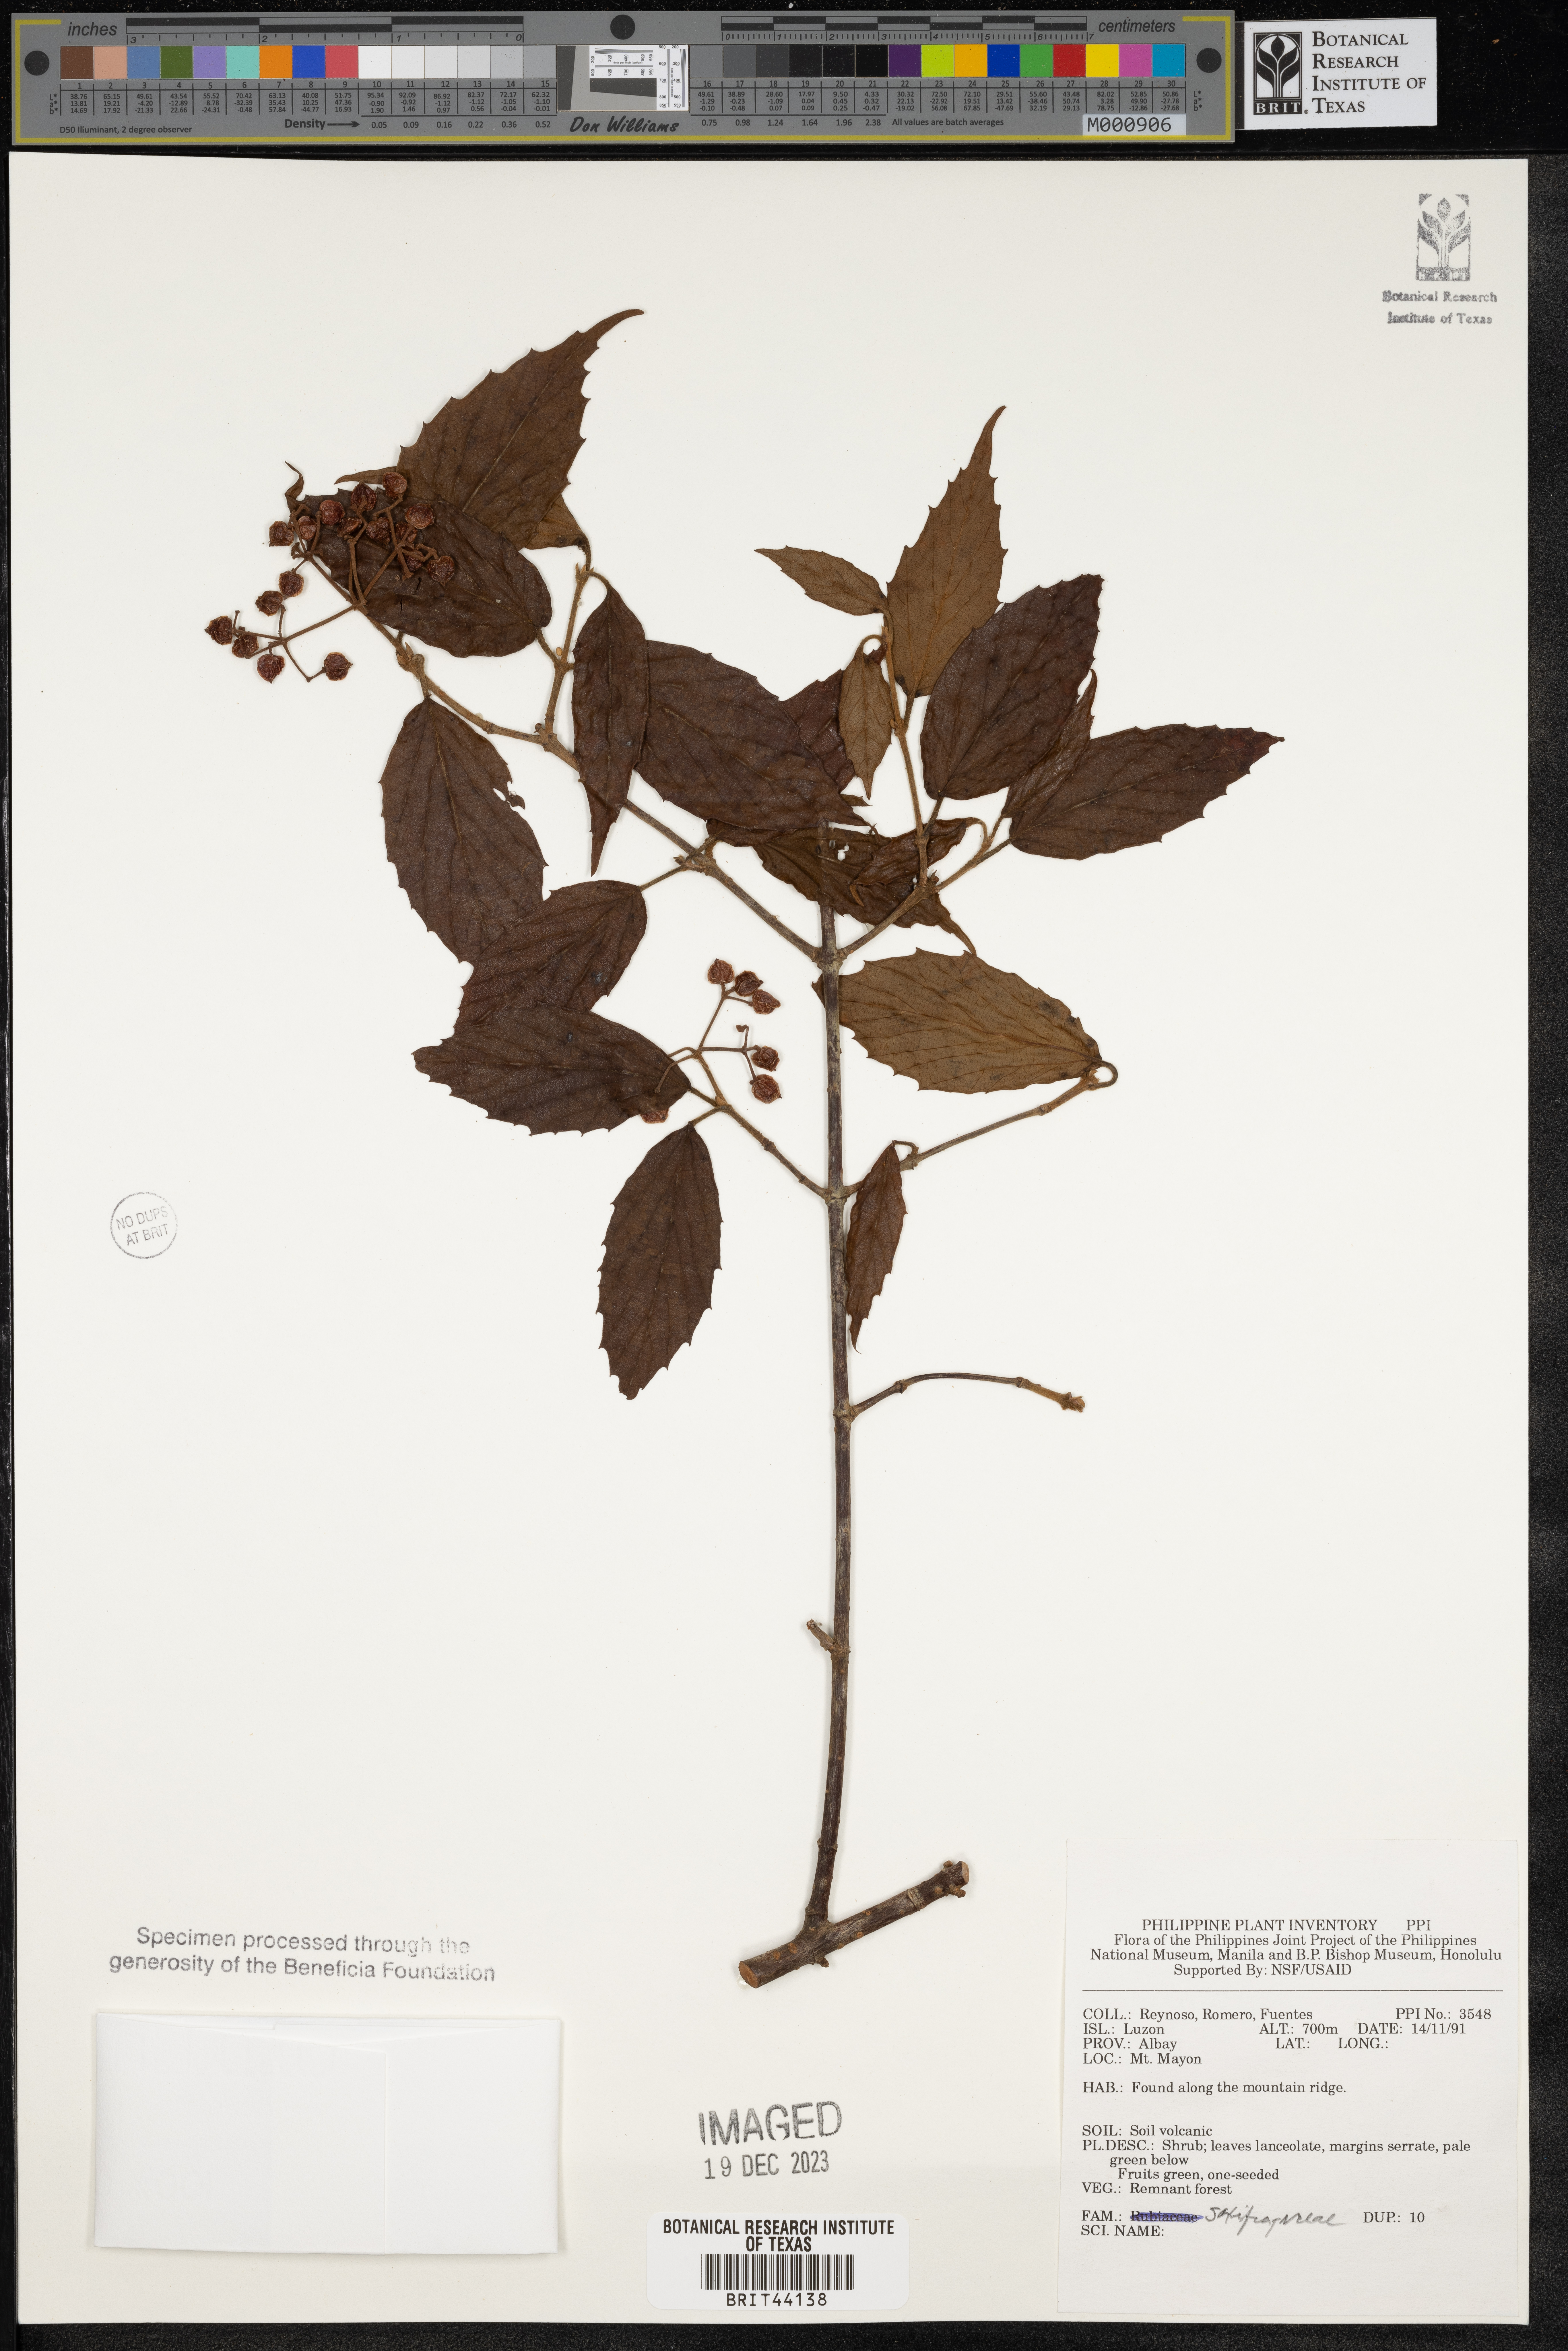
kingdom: Plantae
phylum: Tracheophyta
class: Magnoliopsida
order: Saxifragales
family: Saxifragaceae
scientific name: Saxifragaceae
